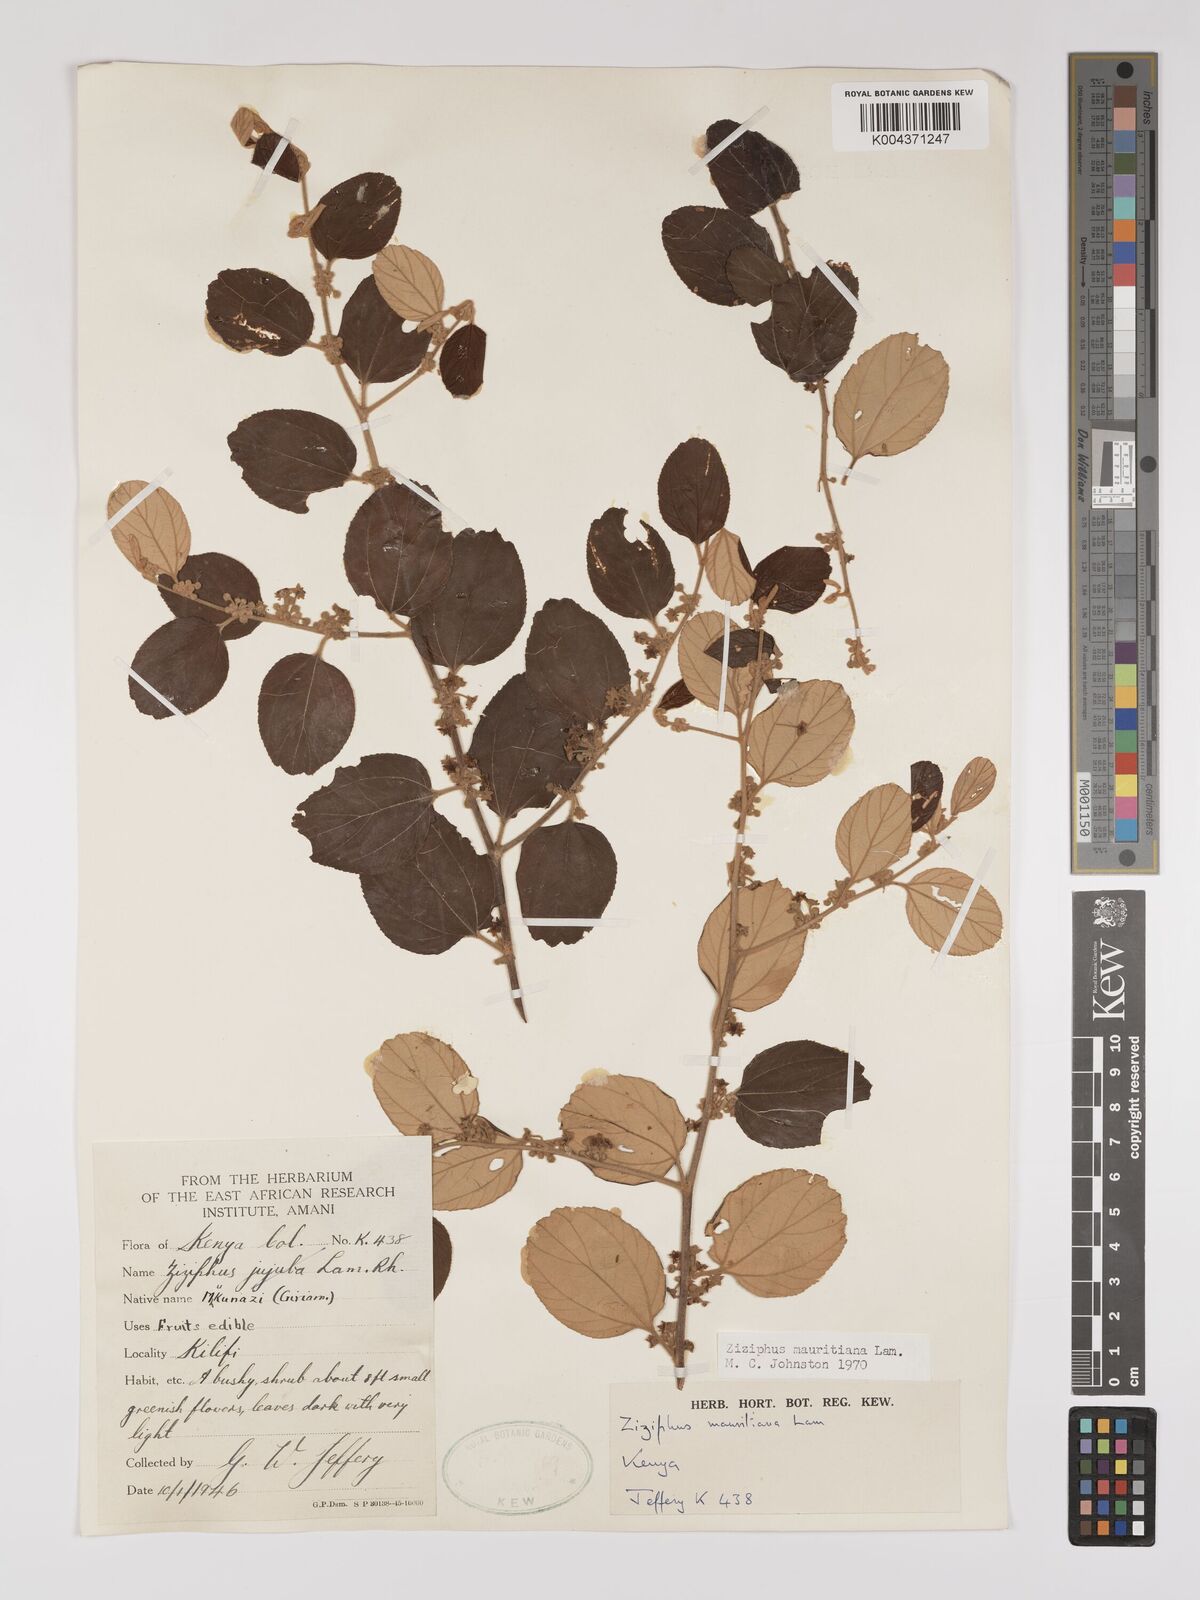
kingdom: Plantae
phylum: Tracheophyta
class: Magnoliopsida
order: Rosales
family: Rhamnaceae
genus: Ziziphus
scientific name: Ziziphus mauritiana
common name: Indian jujube
